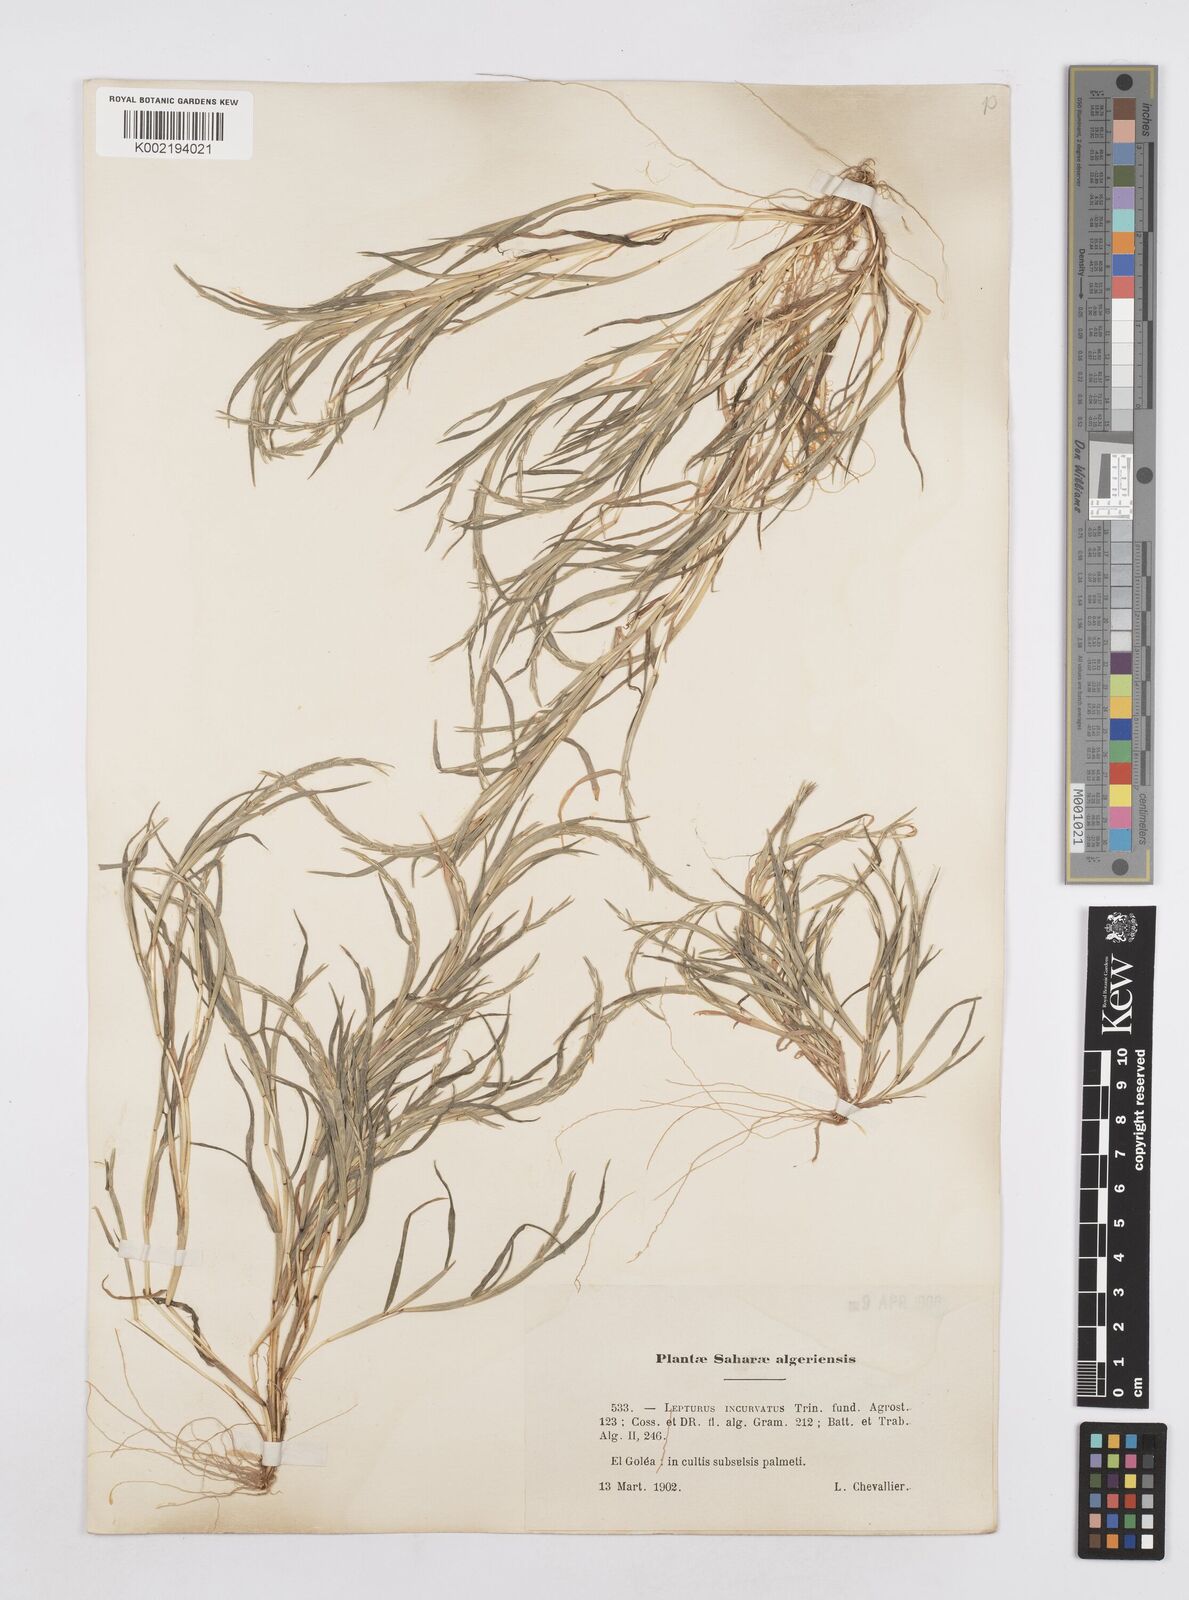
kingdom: Plantae
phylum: Tracheophyta
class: Liliopsida
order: Poales
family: Poaceae
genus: Parapholis
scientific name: Parapholis incurva
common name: Curved sicklegrass
